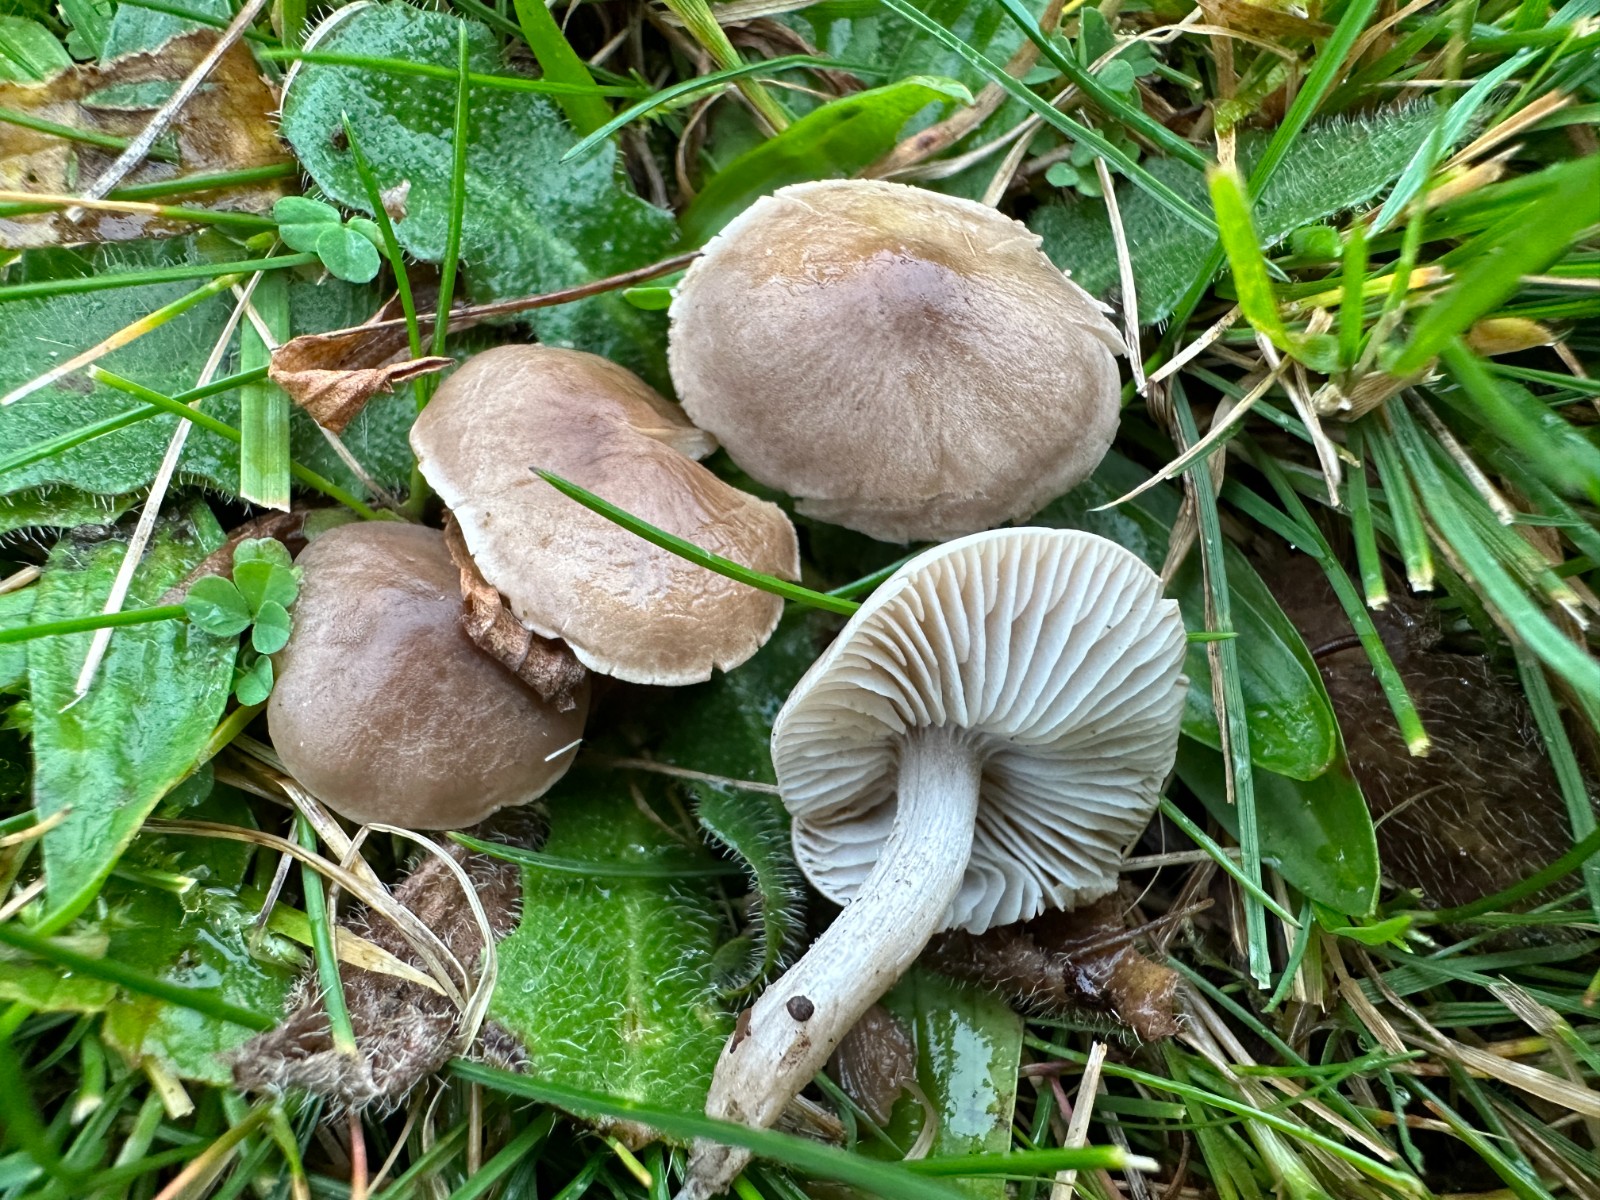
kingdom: Fungi
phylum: Basidiomycota
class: Agaricomycetes
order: Agaricales
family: Tricholomataceae
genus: Dermoloma
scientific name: Dermoloma cuneifolium
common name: eng-nonnehat
